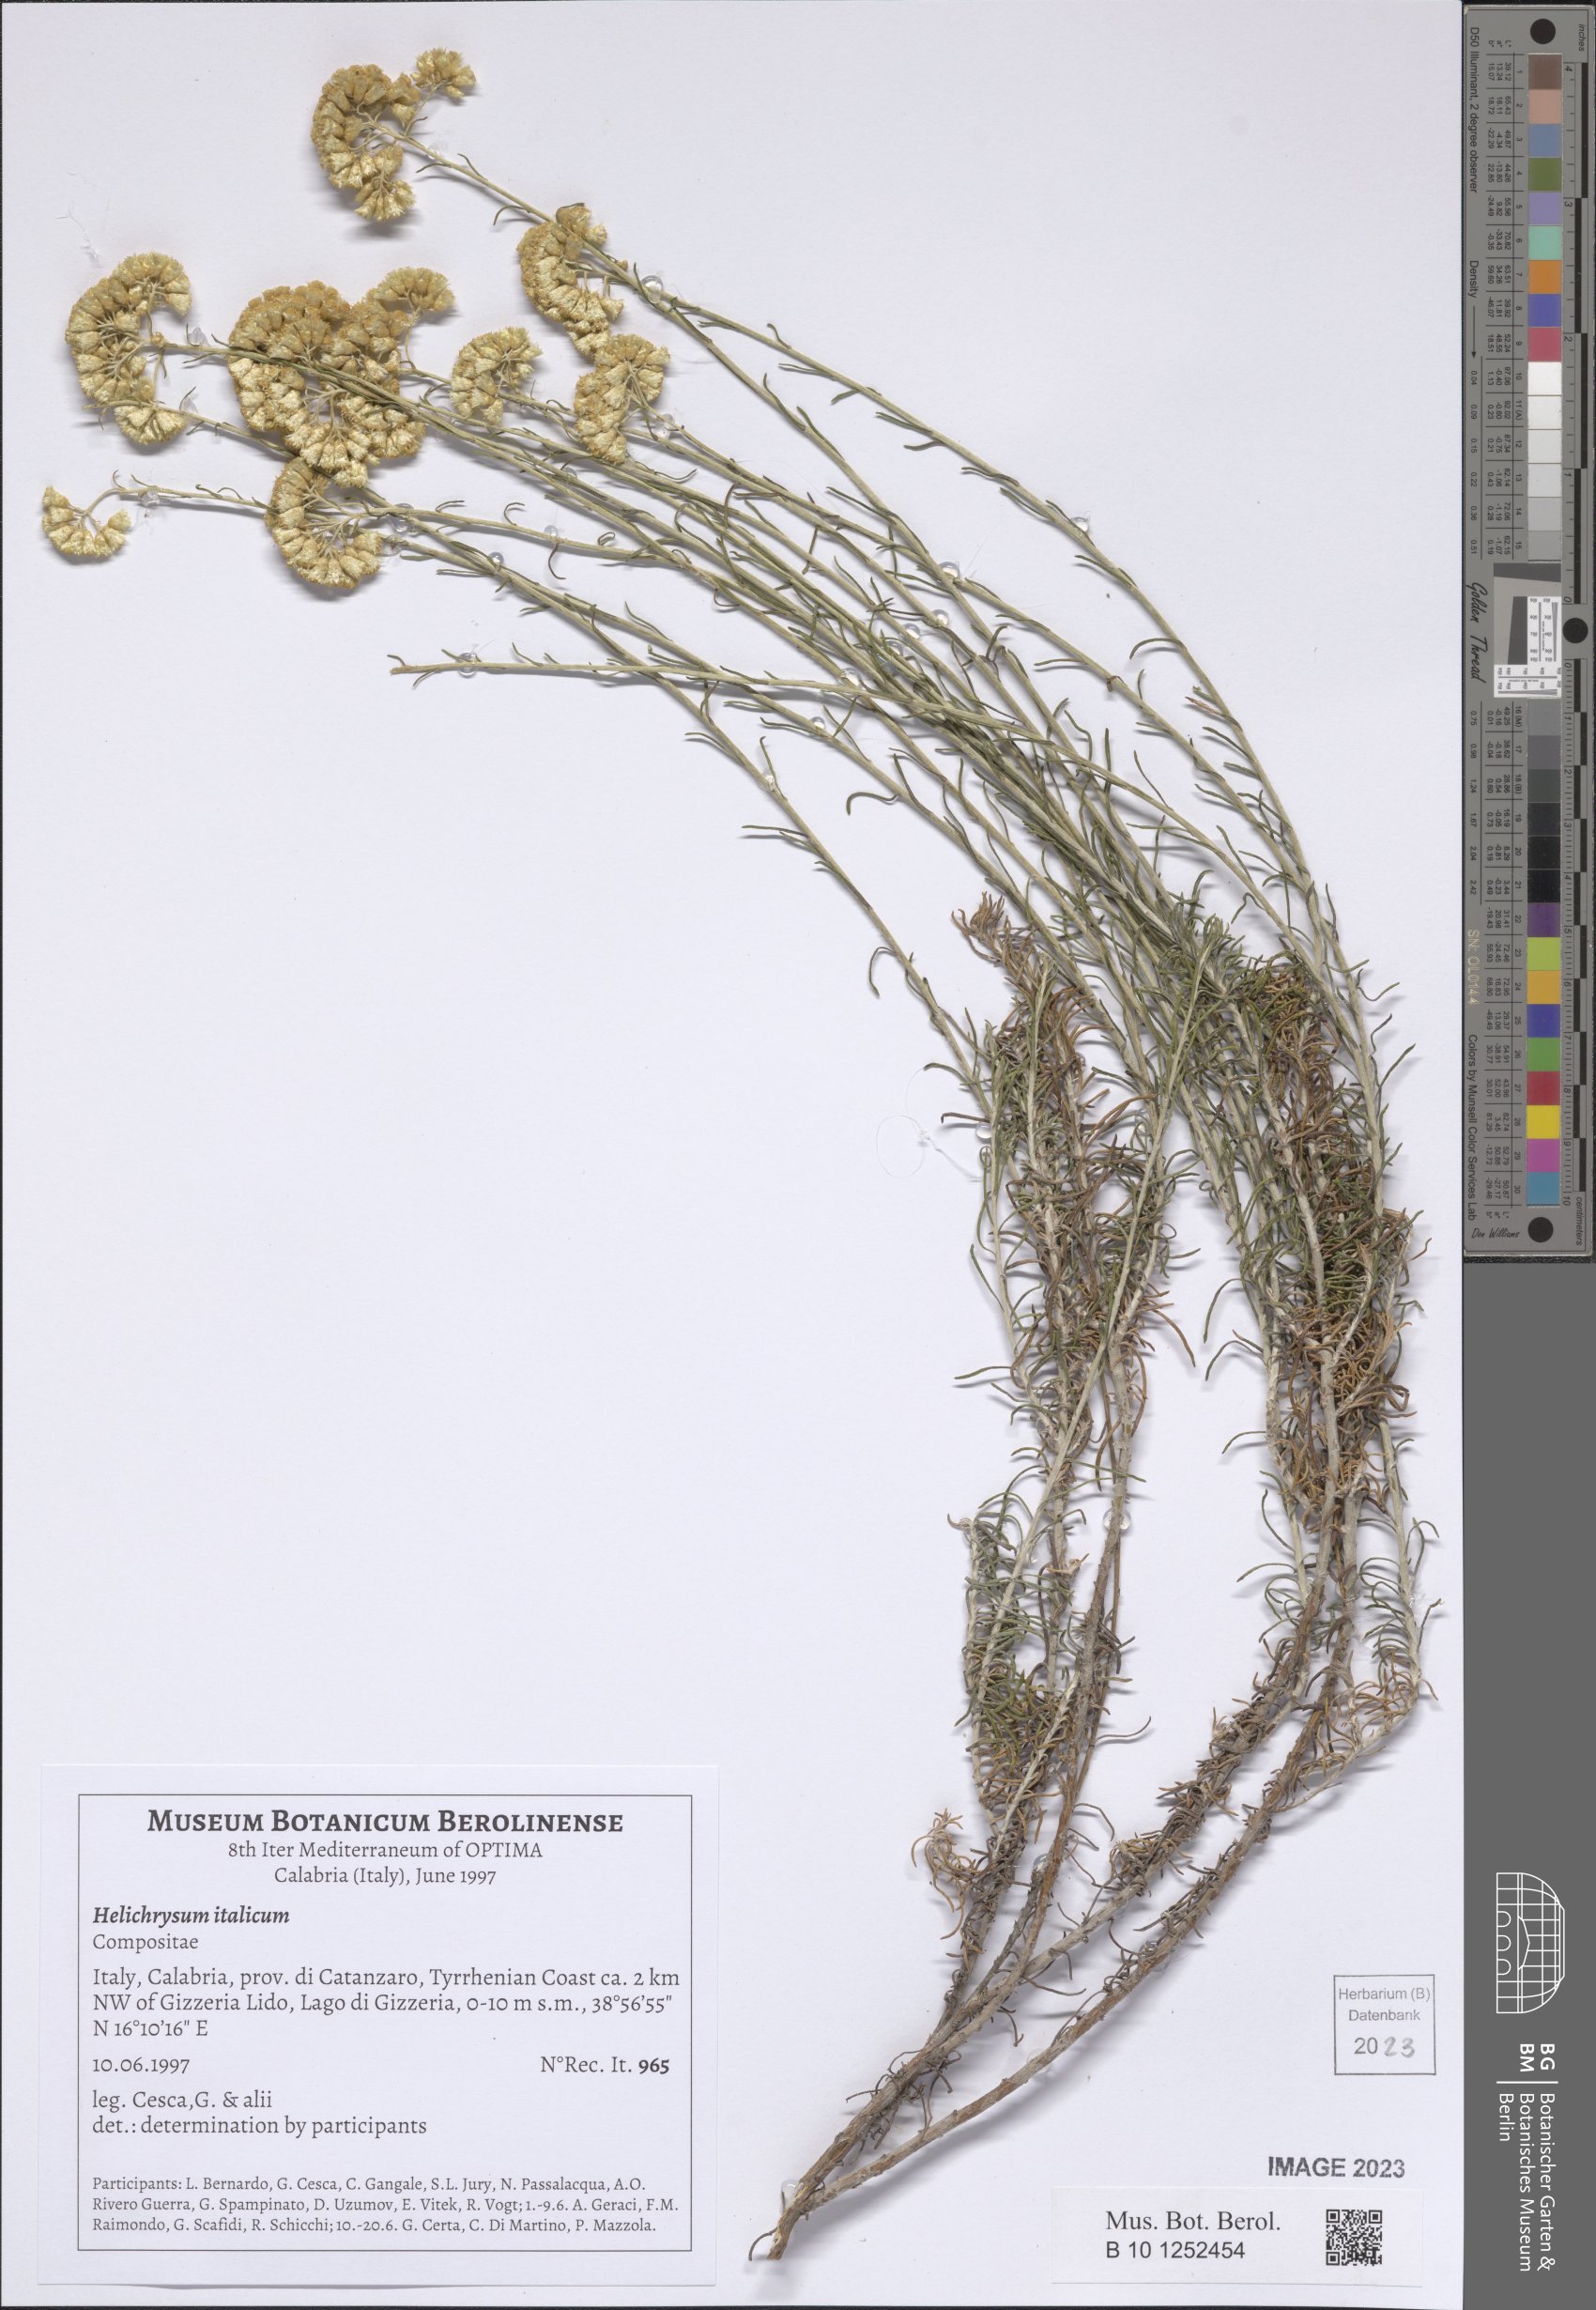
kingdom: Plantae
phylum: Tracheophyta
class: Magnoliopsida
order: Asterales
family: Asteraceae
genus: Helichrysum
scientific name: Helichrysum italicum
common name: Curryplant
